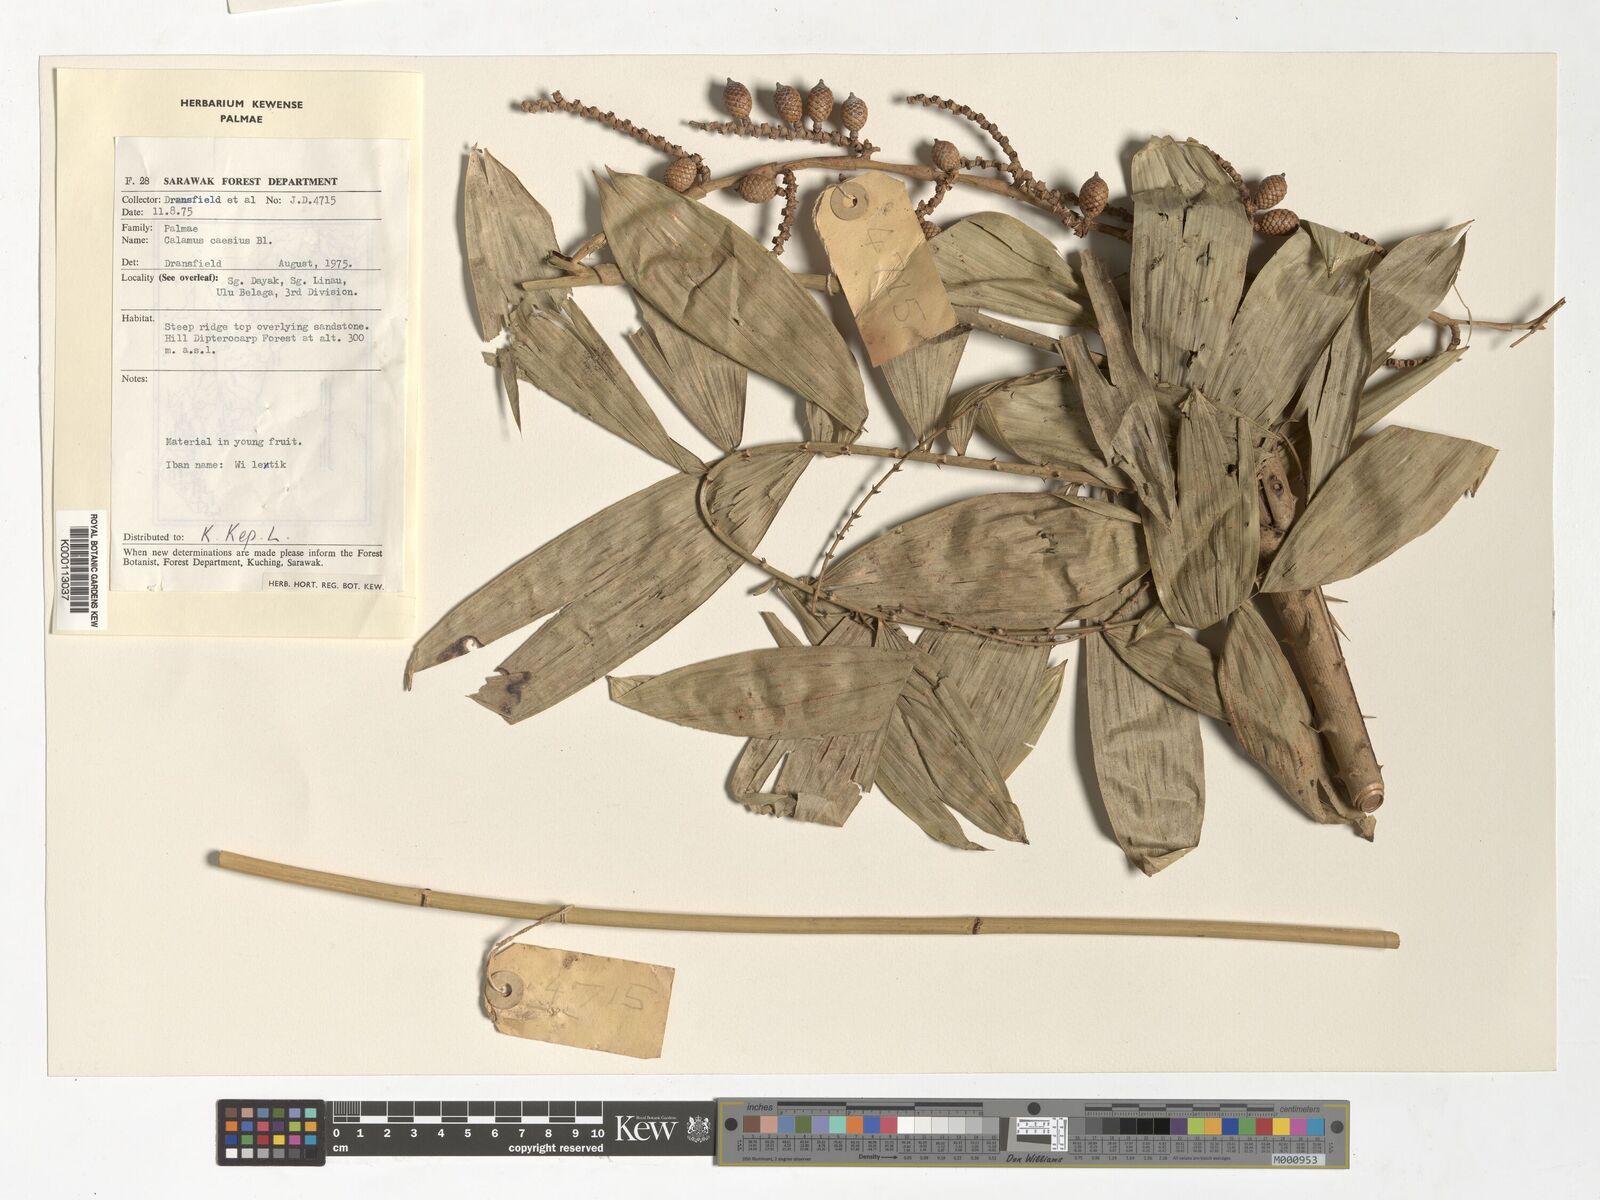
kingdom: Plantae
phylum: Tracheophyta
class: Liliopsida
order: Arecales
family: Arecaceae
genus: Calamus
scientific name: Calamus caesius
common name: Rattan palm
